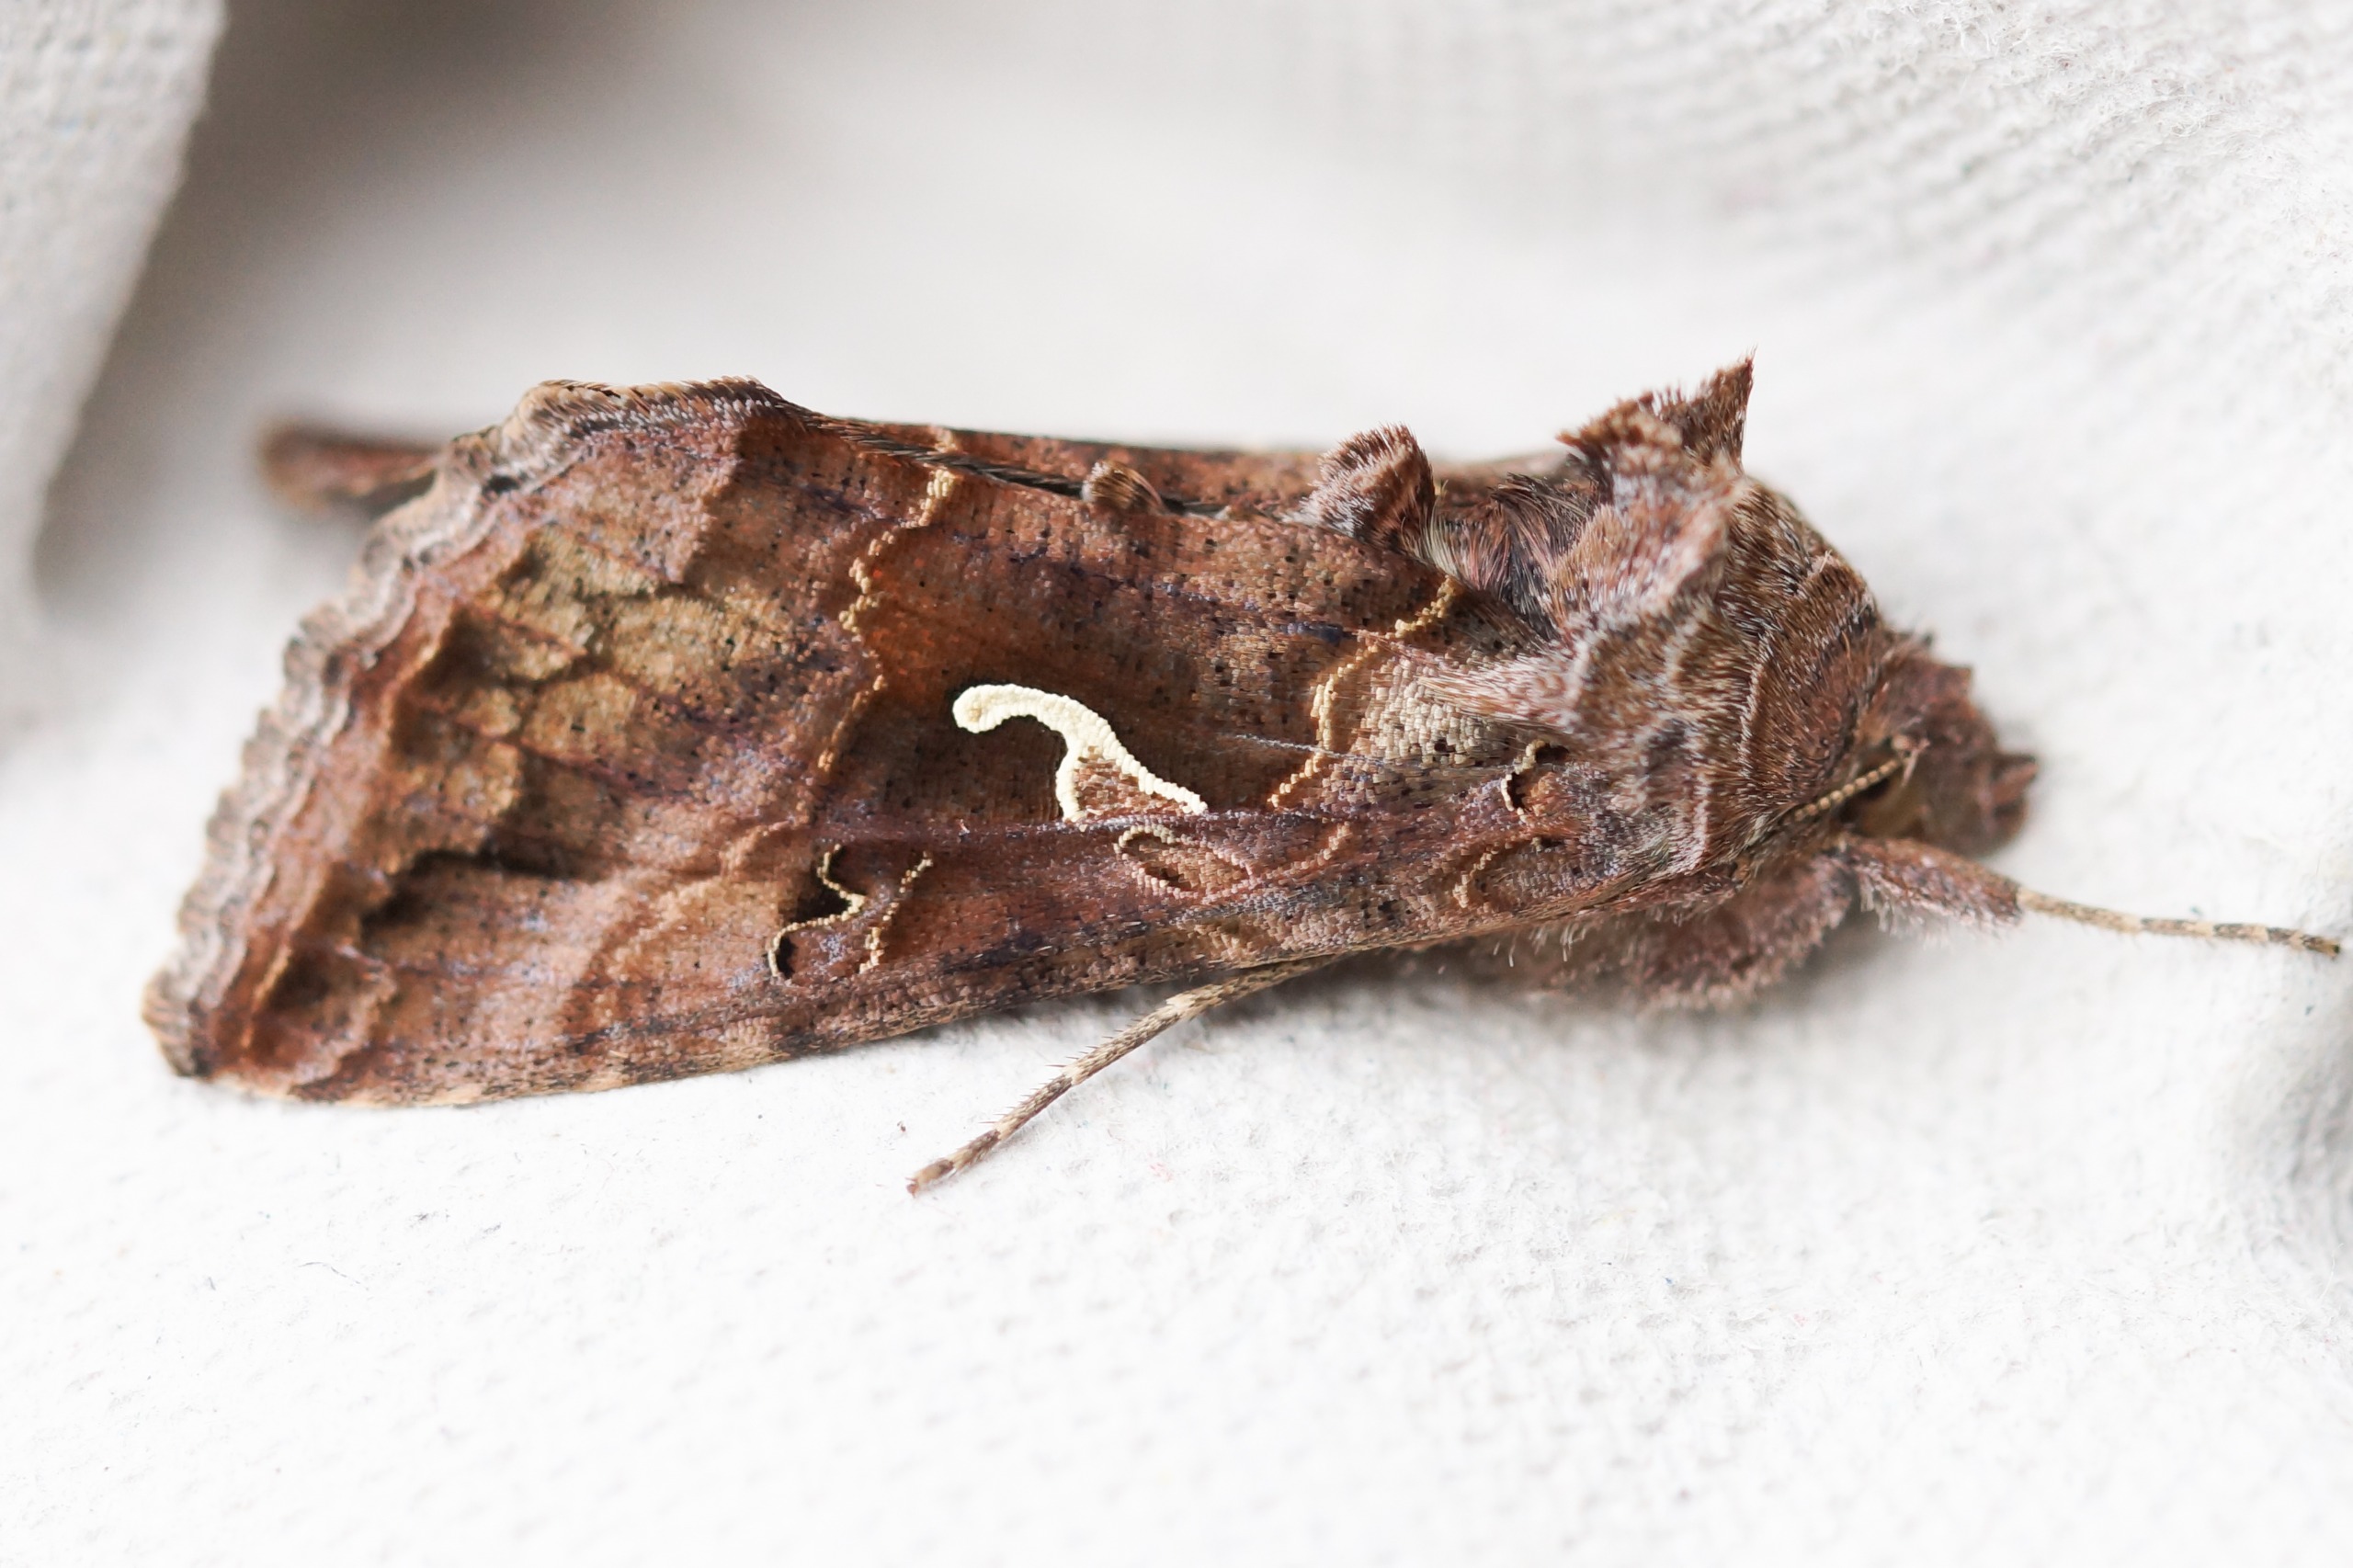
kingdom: Animalia
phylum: Arthropoda
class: Insecta
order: Lepidoptera
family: Noctuidae
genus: Autographa
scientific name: Autographa gamma
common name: Gammaugle
